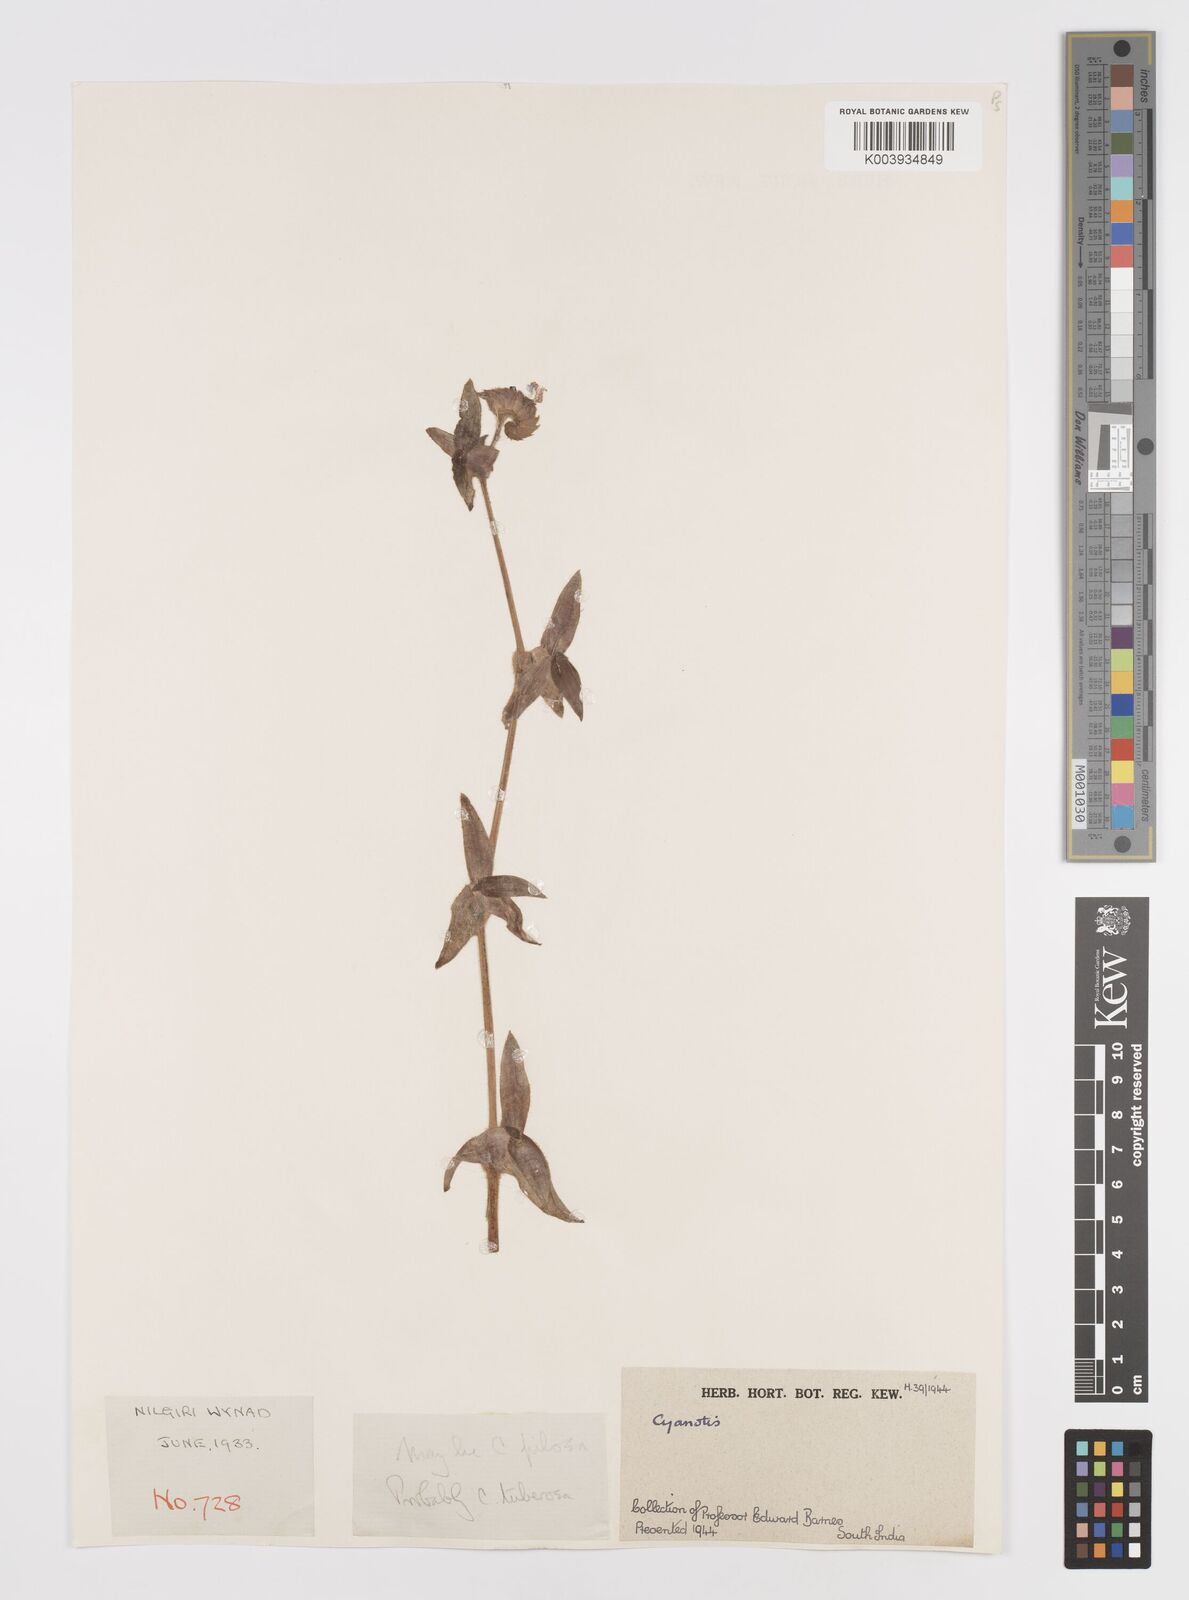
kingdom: Plantae
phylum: Tracheophyta
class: Liliopsida
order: Commelinales
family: Commelinaceae
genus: Cyanotis
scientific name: Cyanotis
